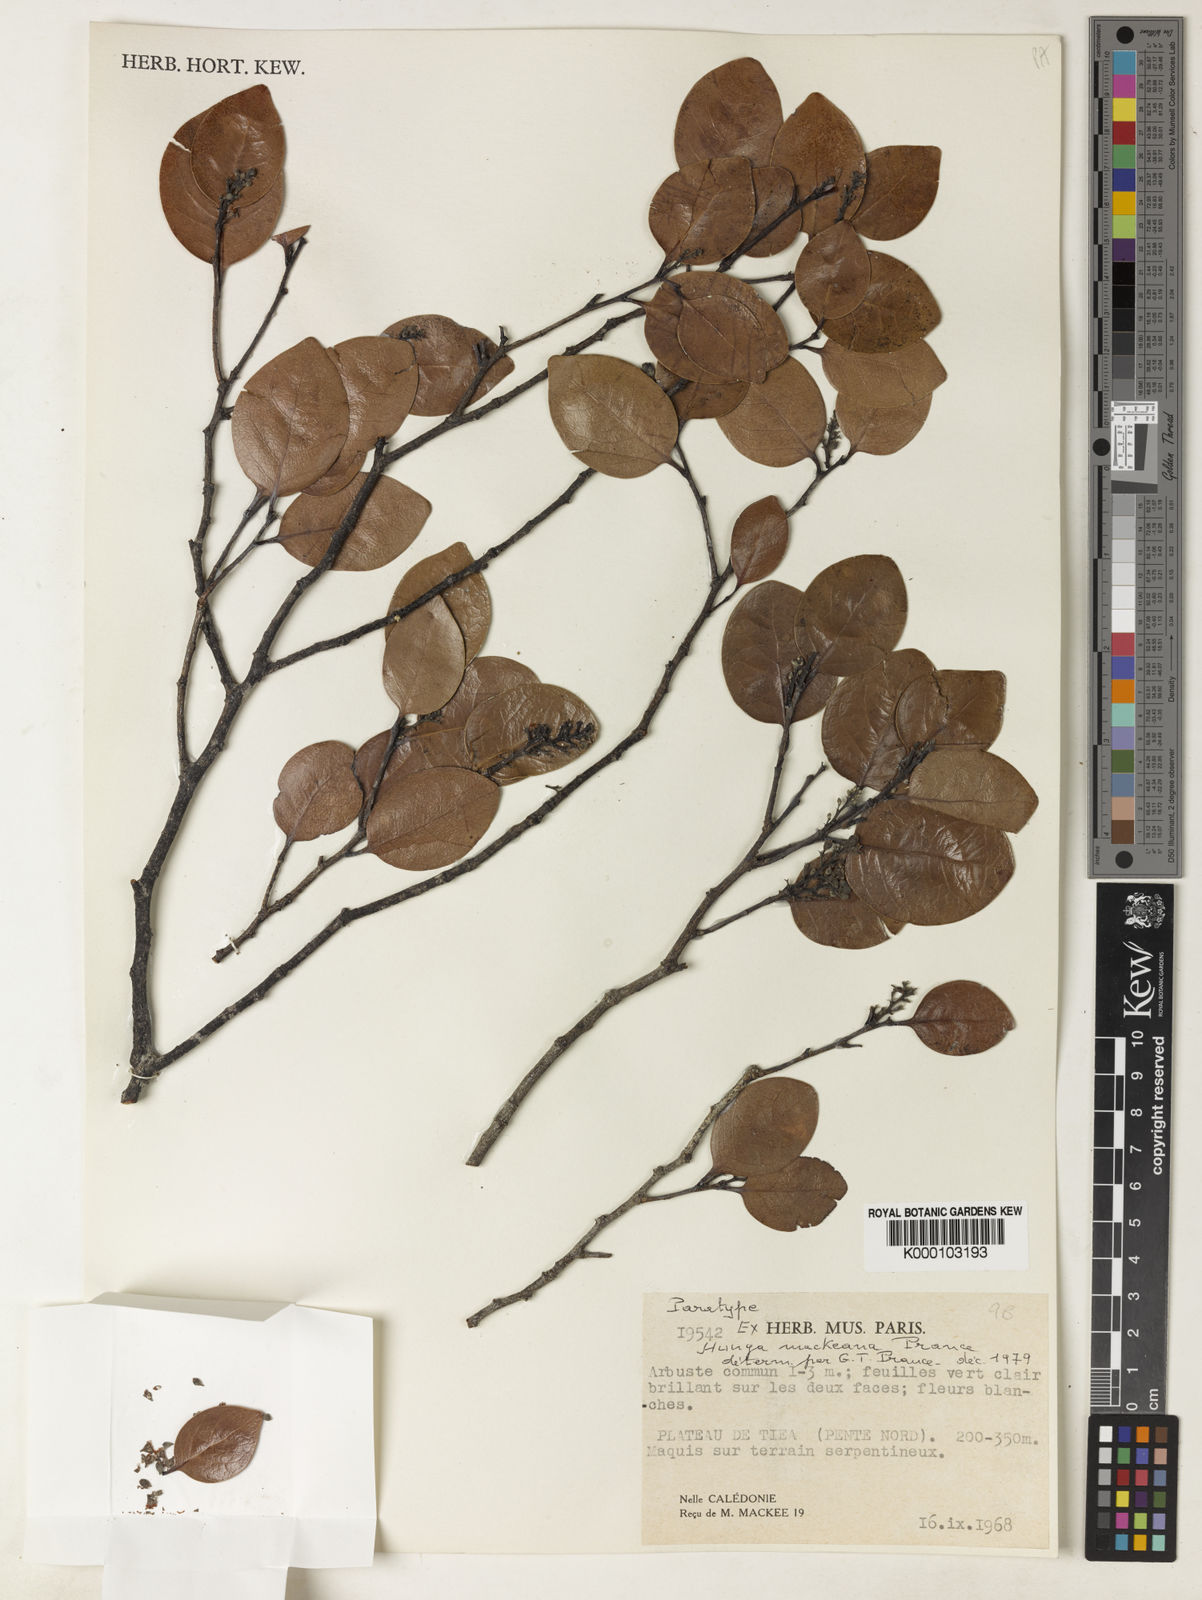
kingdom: Plantae
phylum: Tracheophyta
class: Magnoliopsida
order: Malpighiales
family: Chrysobalanaceae
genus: Hunga
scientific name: Hunga mackeeana
